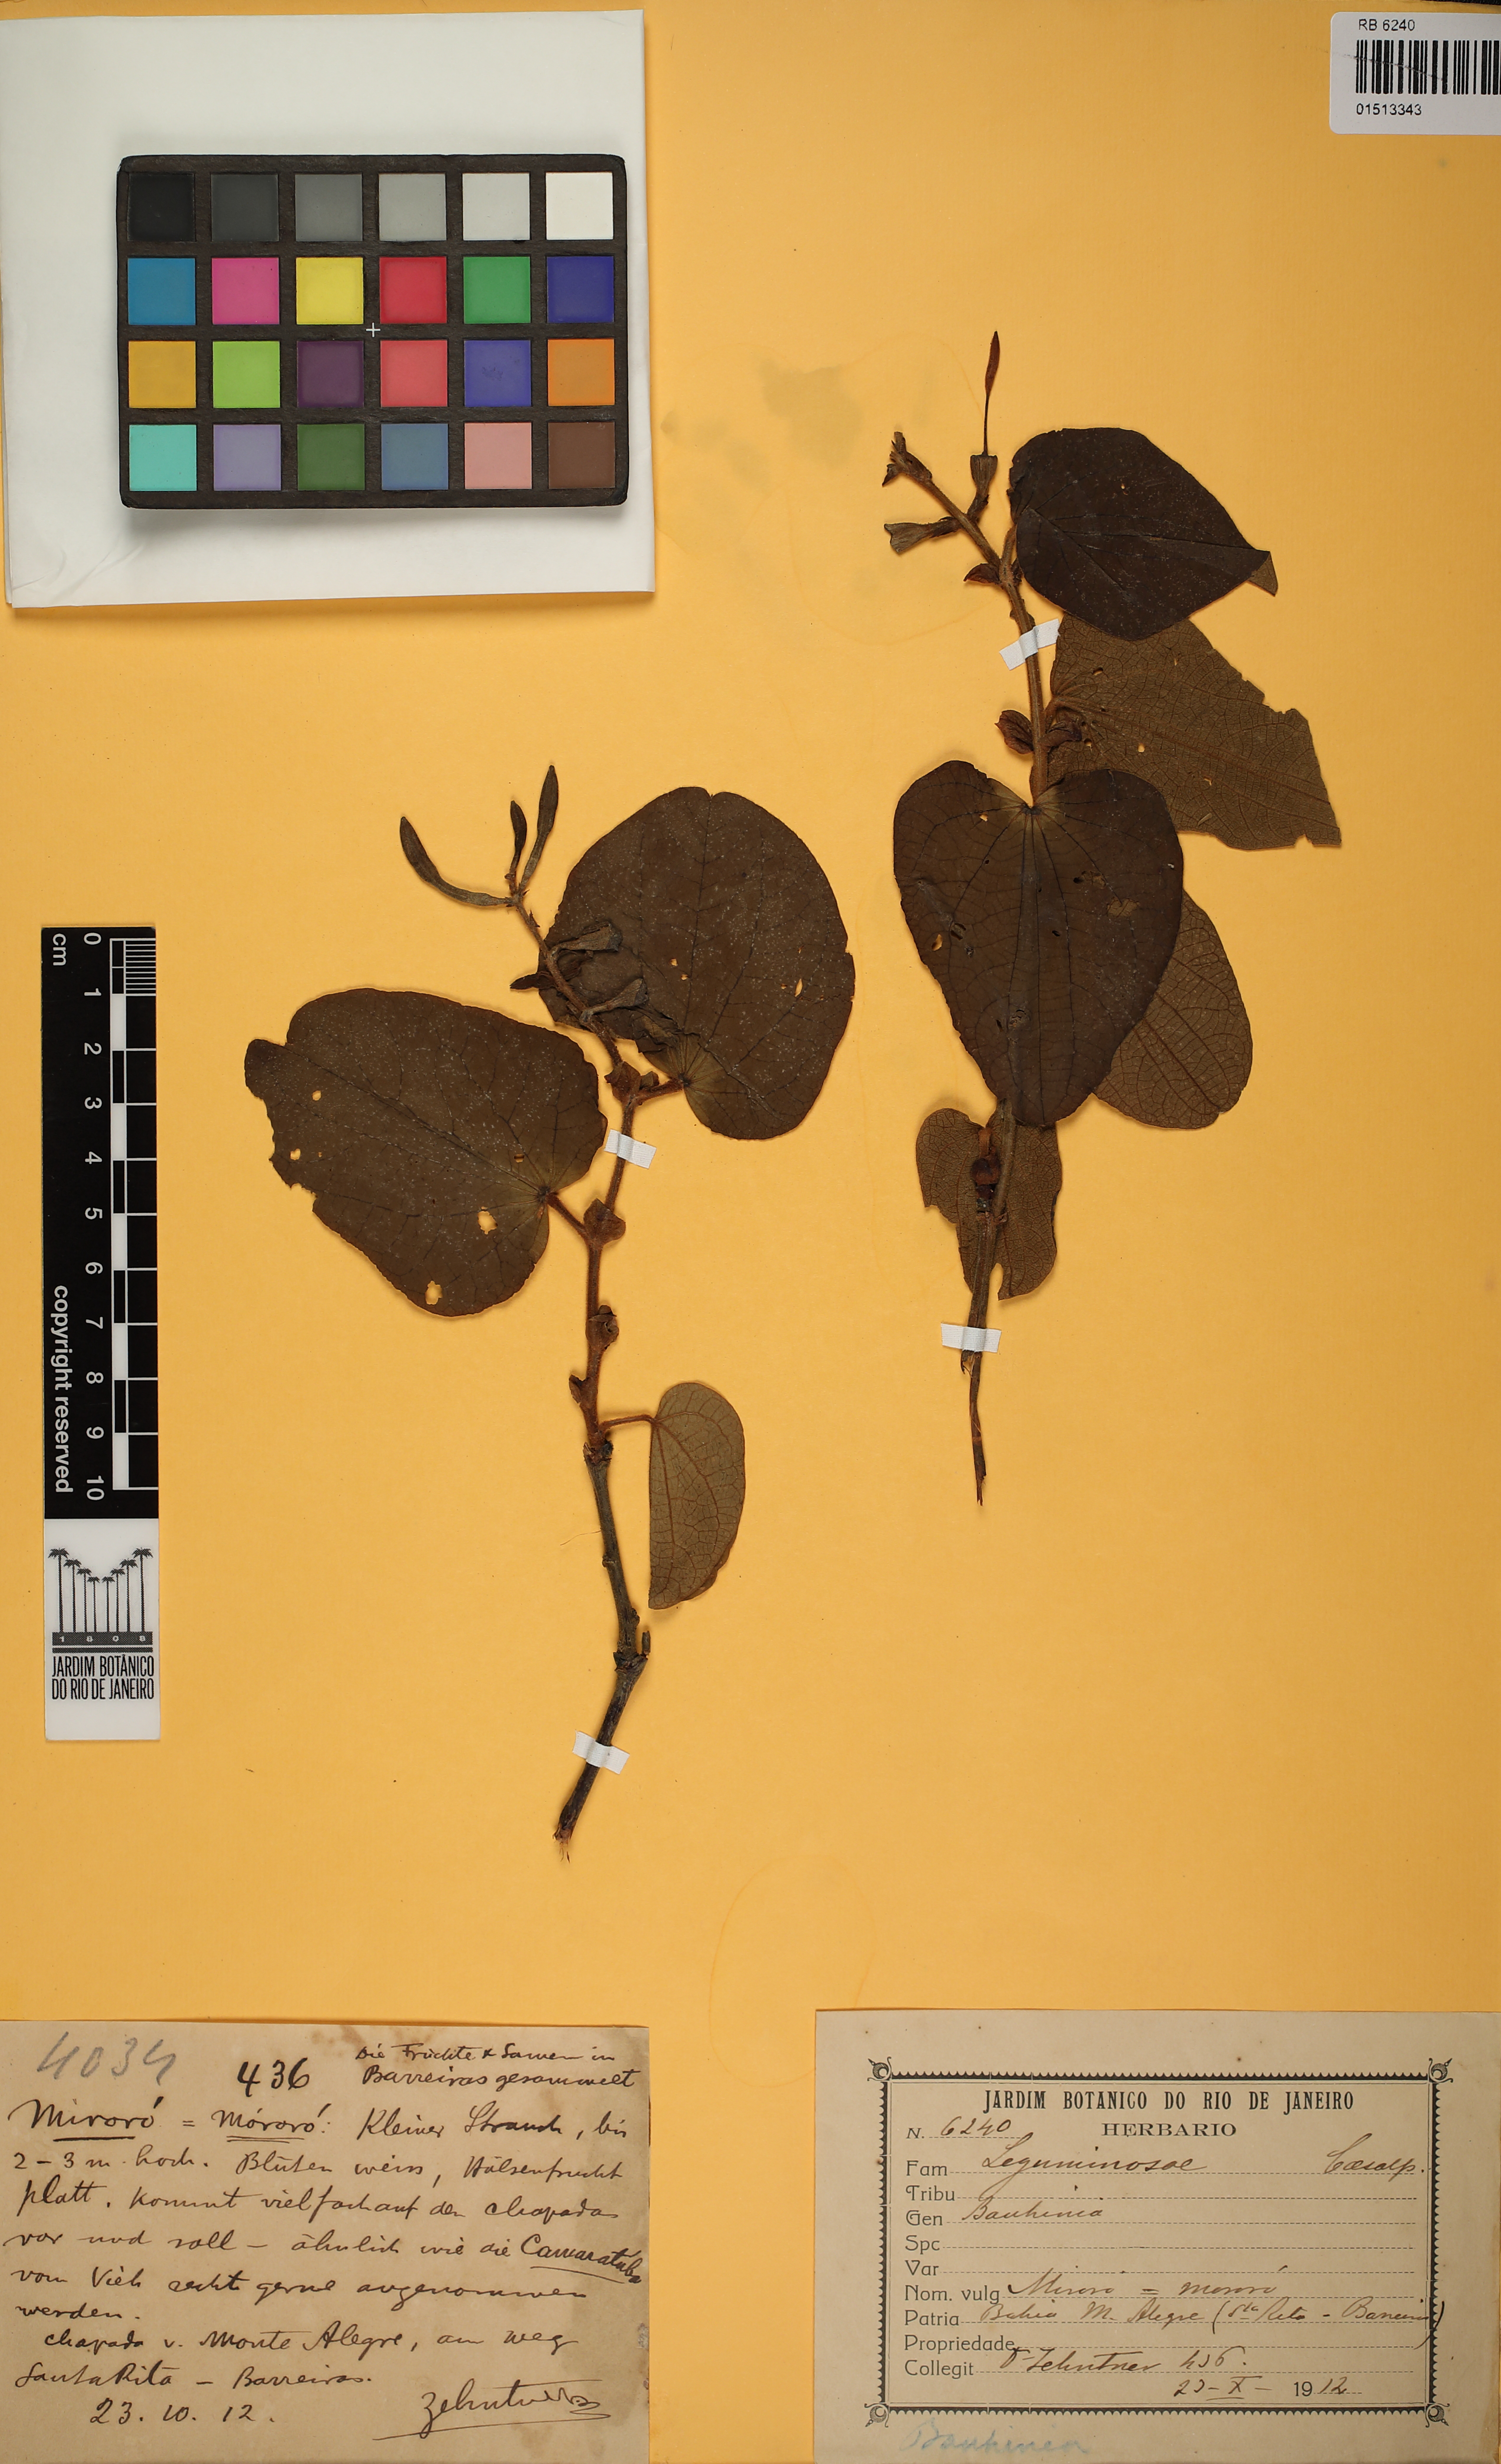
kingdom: Plantae
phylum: Tracheophyta
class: Magnoliopsida
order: Fabales
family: Fabaceae
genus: Bauhinia
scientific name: Bauhinia
